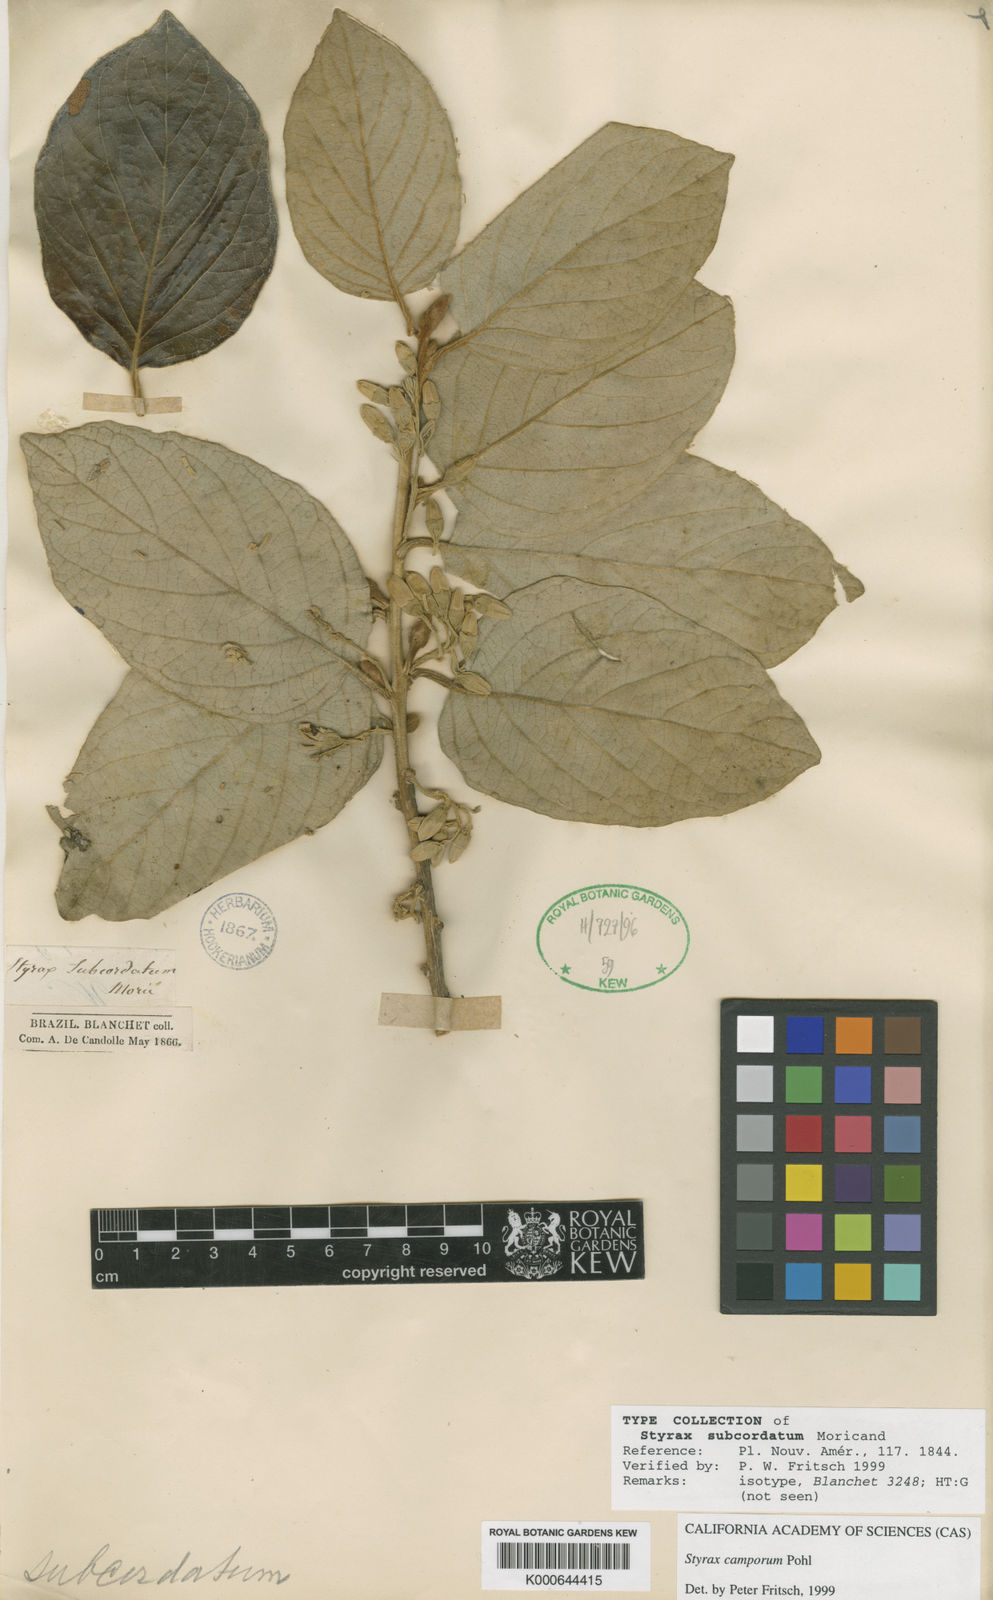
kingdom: Plantae
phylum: Tracheophyta
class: Magnoliopsida
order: Ericales
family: Styracaceae
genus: Styrax
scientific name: Styrax camporum
